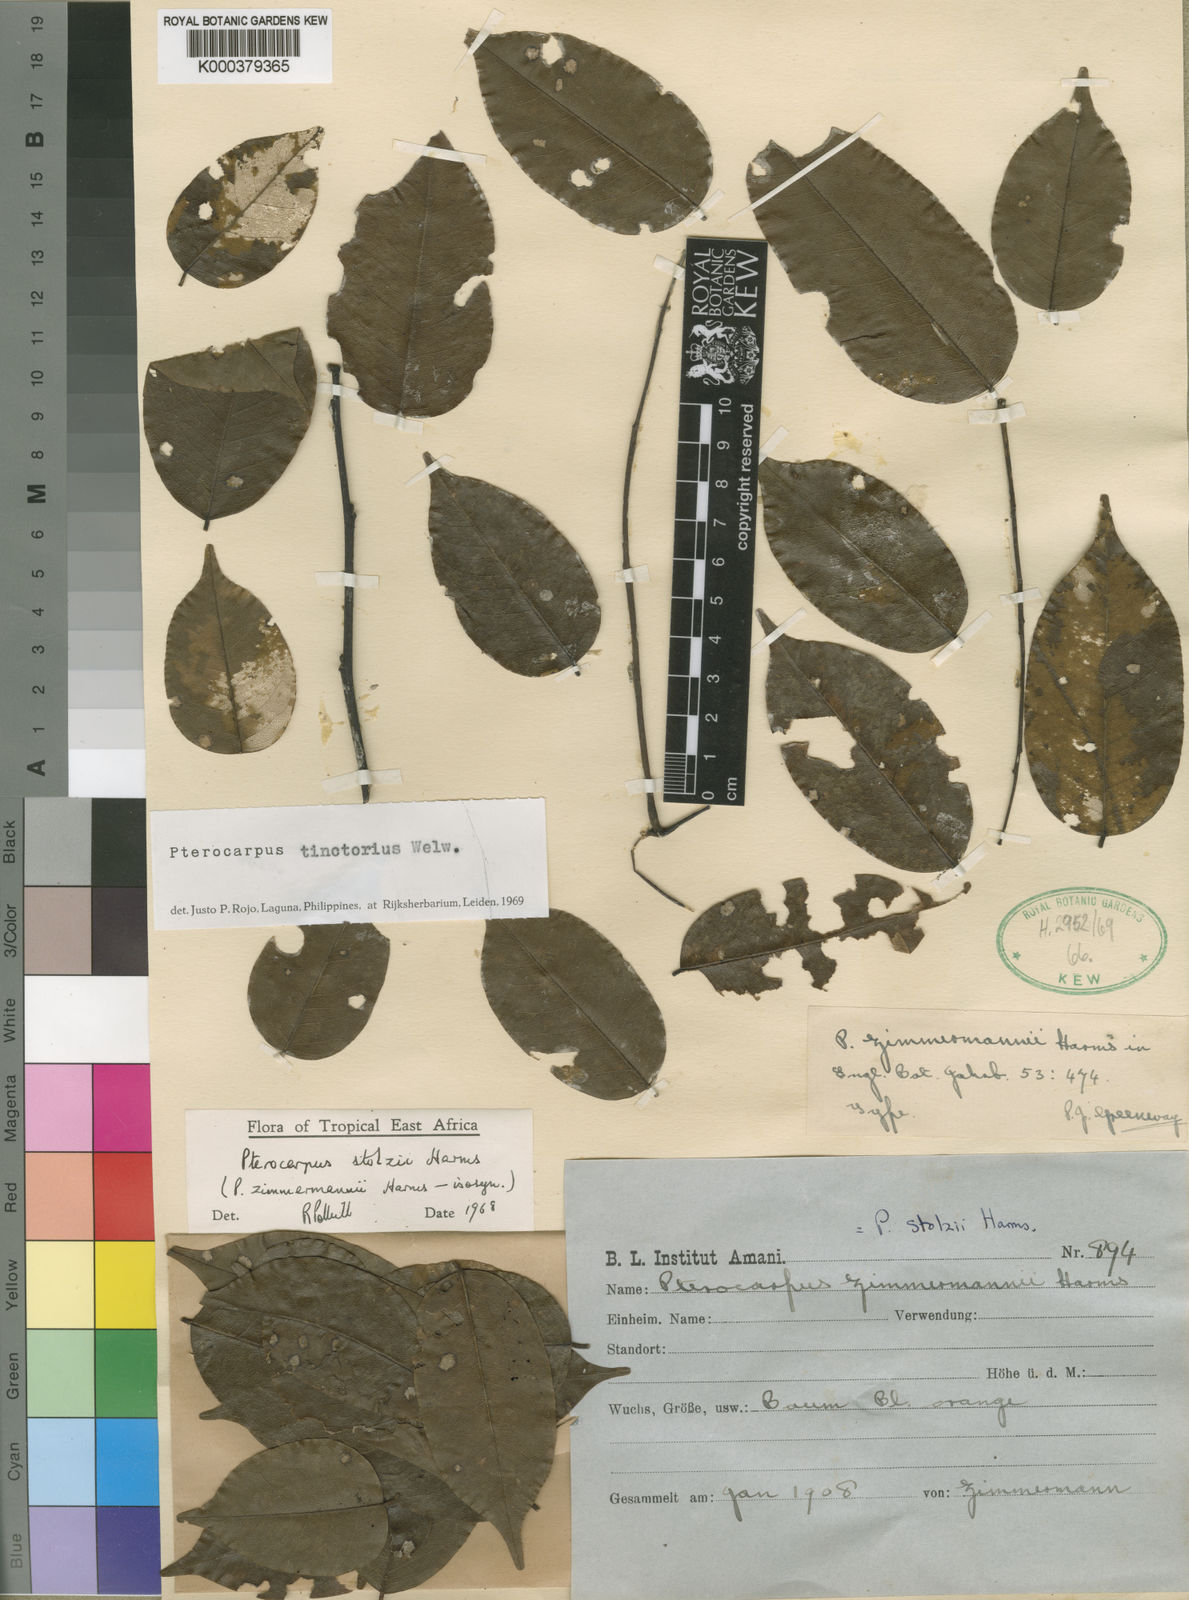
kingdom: Plantae
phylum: Tracheophyta
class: Magnoliopsida
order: Fabales
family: Fabaceae
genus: Pterocarpus
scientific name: Pterocarpus tinctorius
